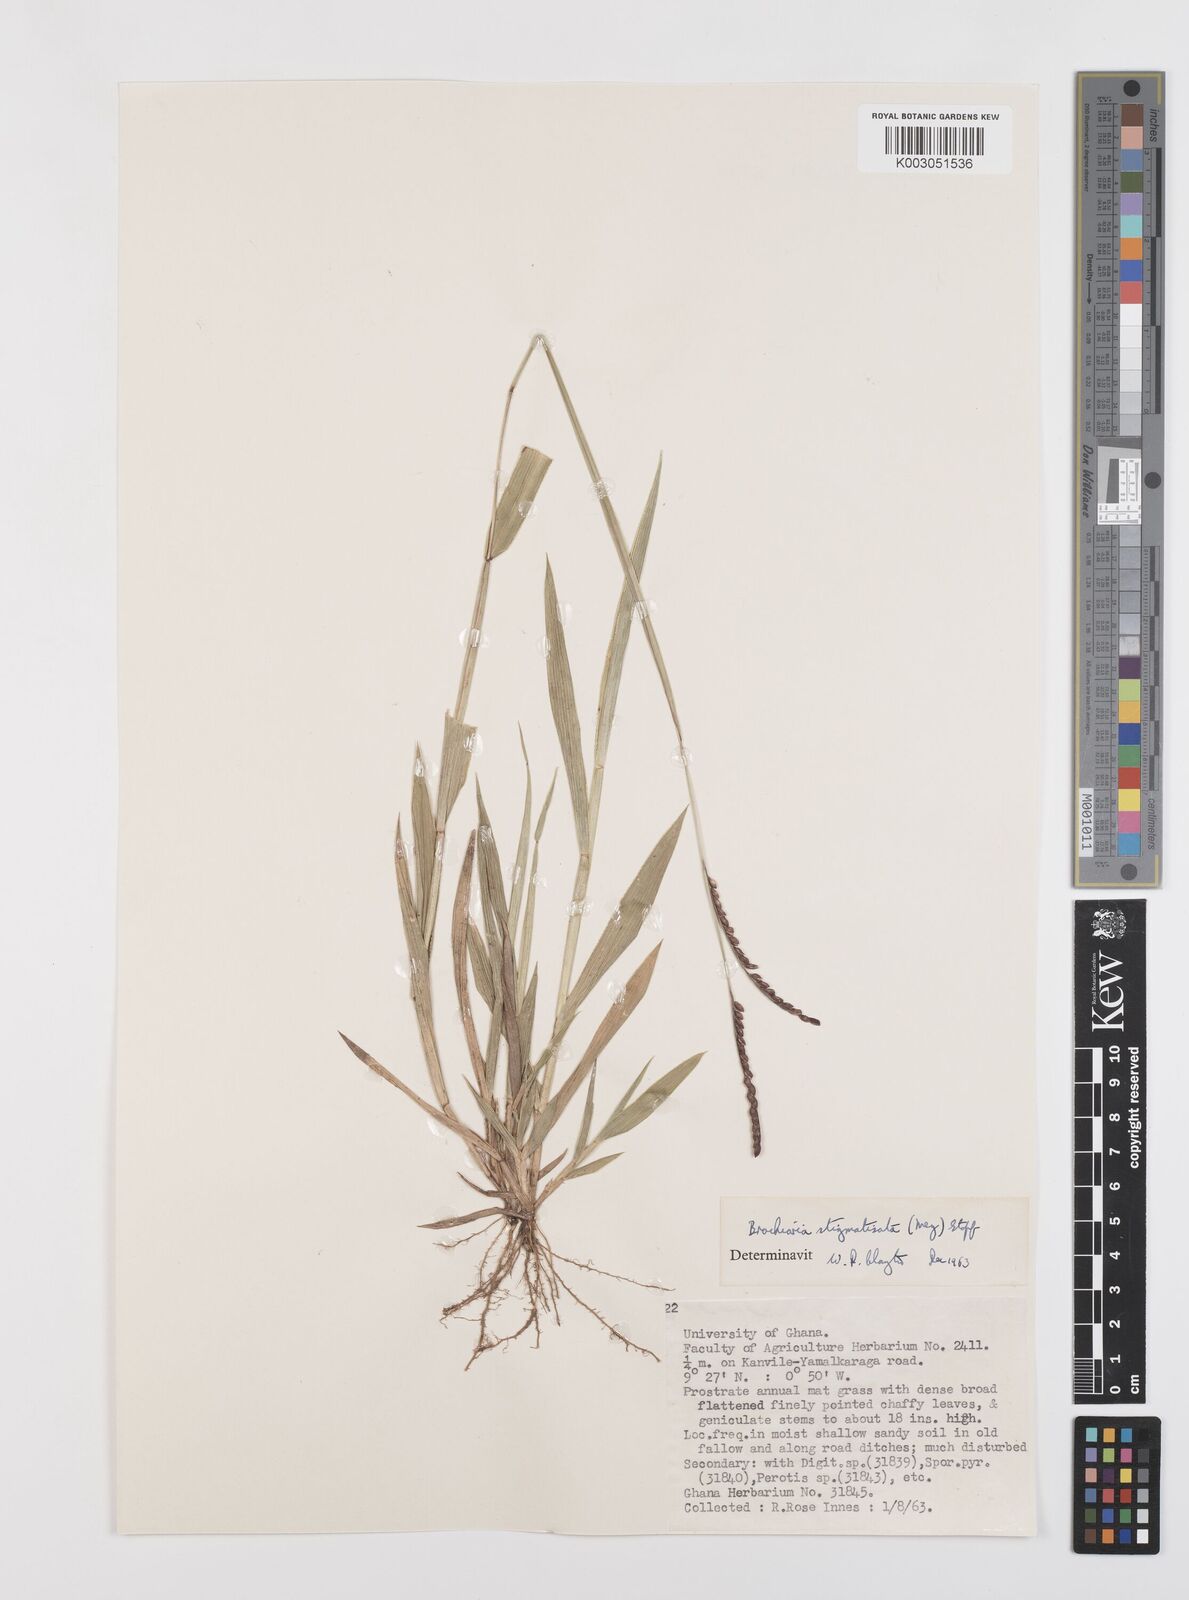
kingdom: Plantae
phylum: Tracheophyta
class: Liliopsida
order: Poales
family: Poaceae
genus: Urochloa
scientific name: Urochloa stigmatisata
